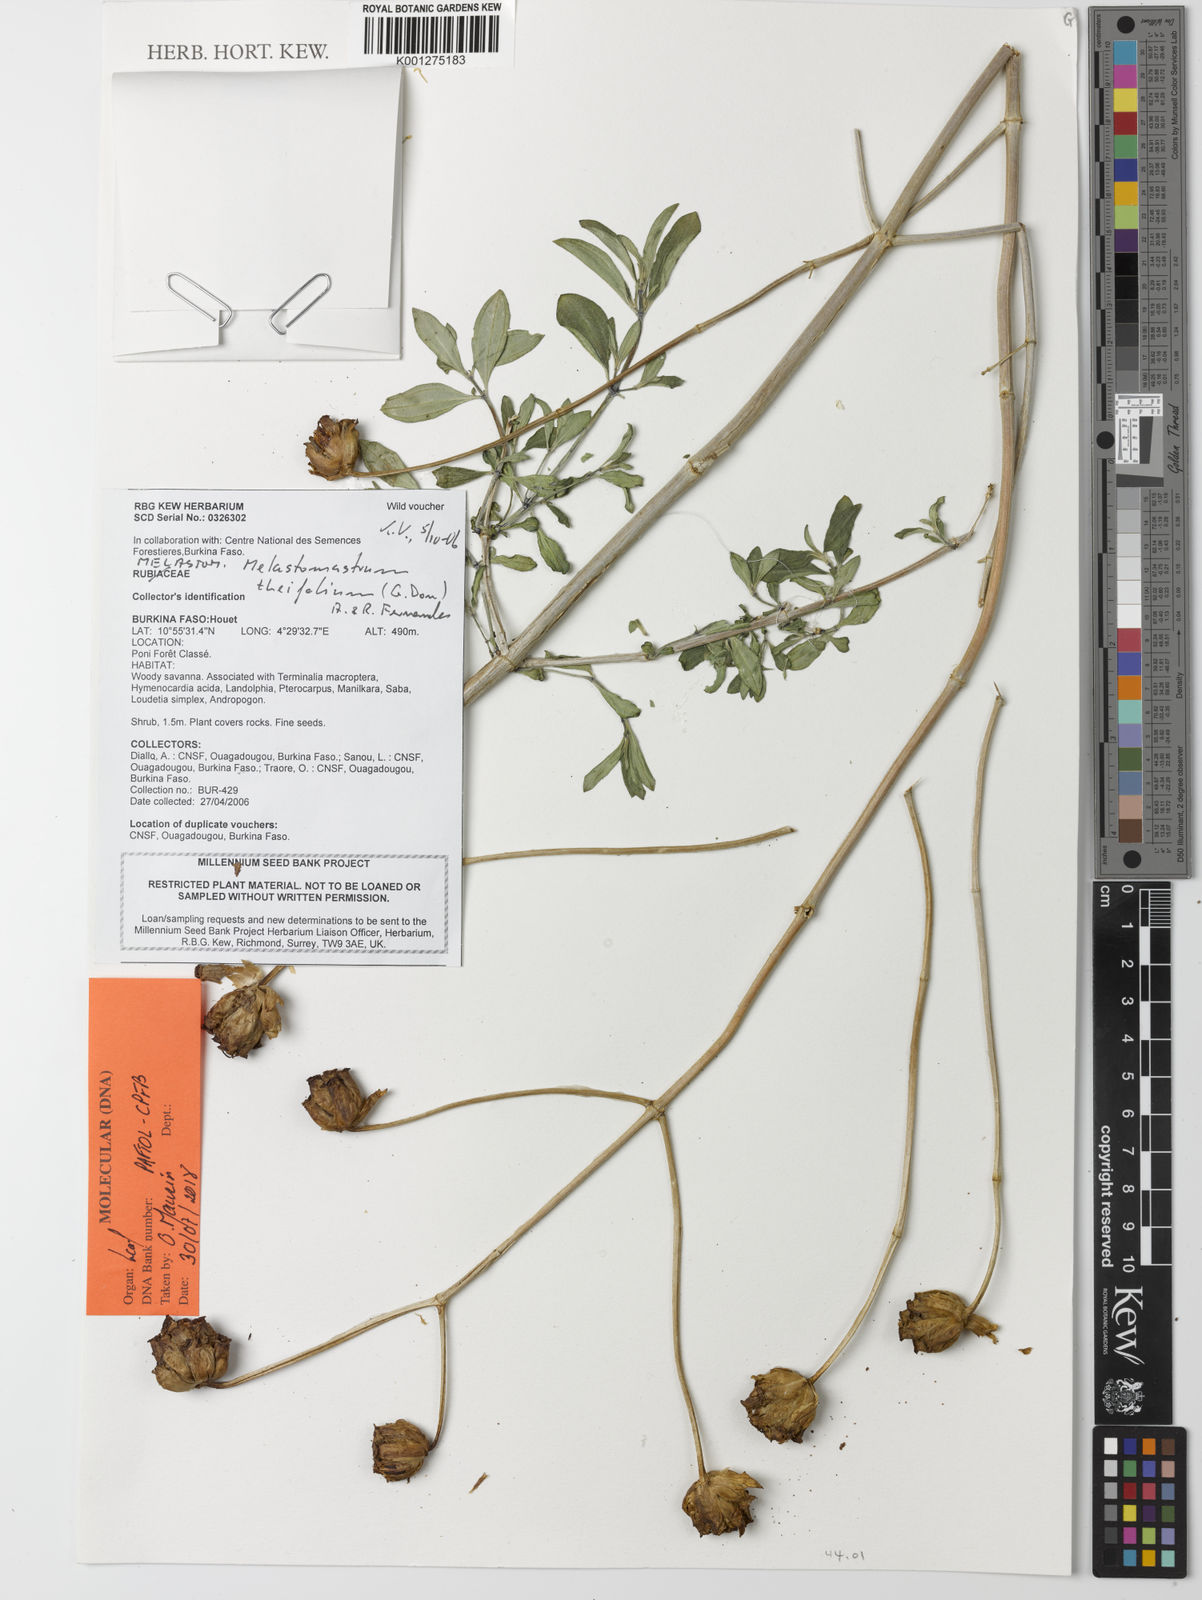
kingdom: Plantae
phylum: Tracheophyta
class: Magnoliopsida
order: Myrtales
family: Melastomataceae
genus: Melastomastrum
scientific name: Melastomastrum theifolium
